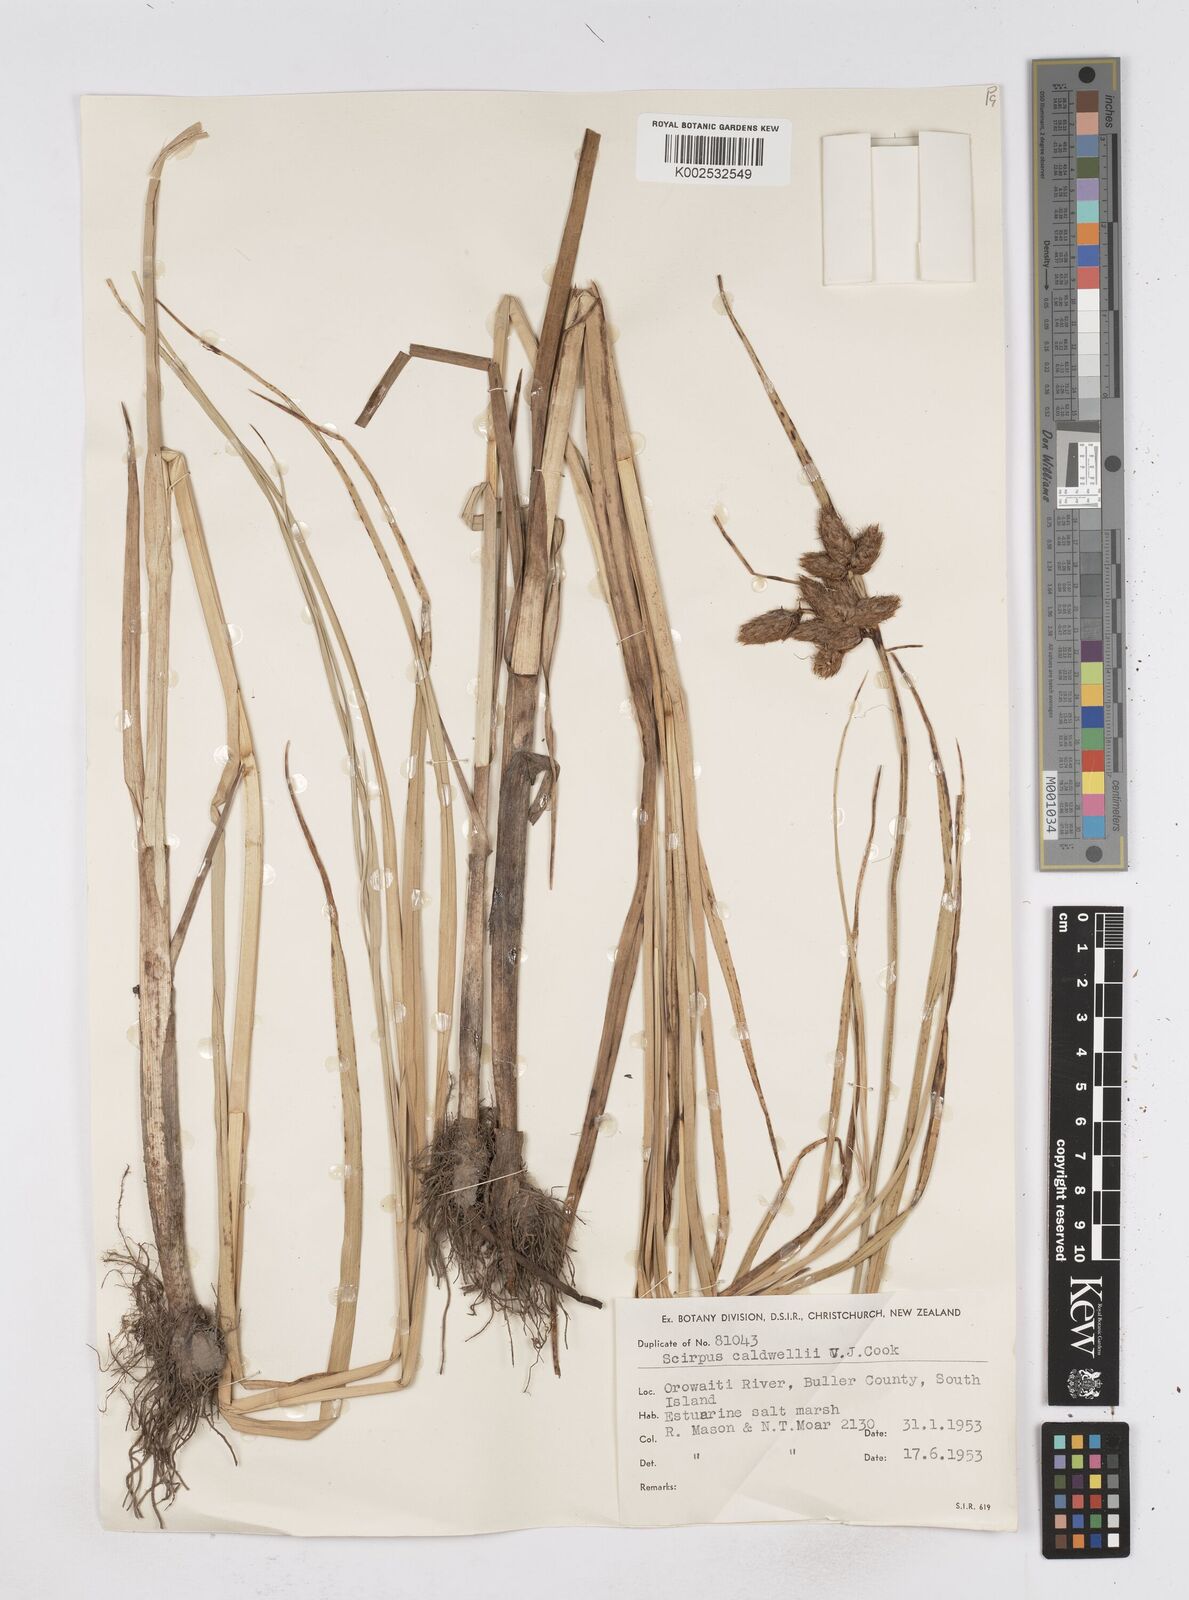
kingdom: Plantae
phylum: Tracheophyta
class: Liliopsida
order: Poales
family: Cyperaceae
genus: Bolboschoenus
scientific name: Bolboschoenus caldwellii
